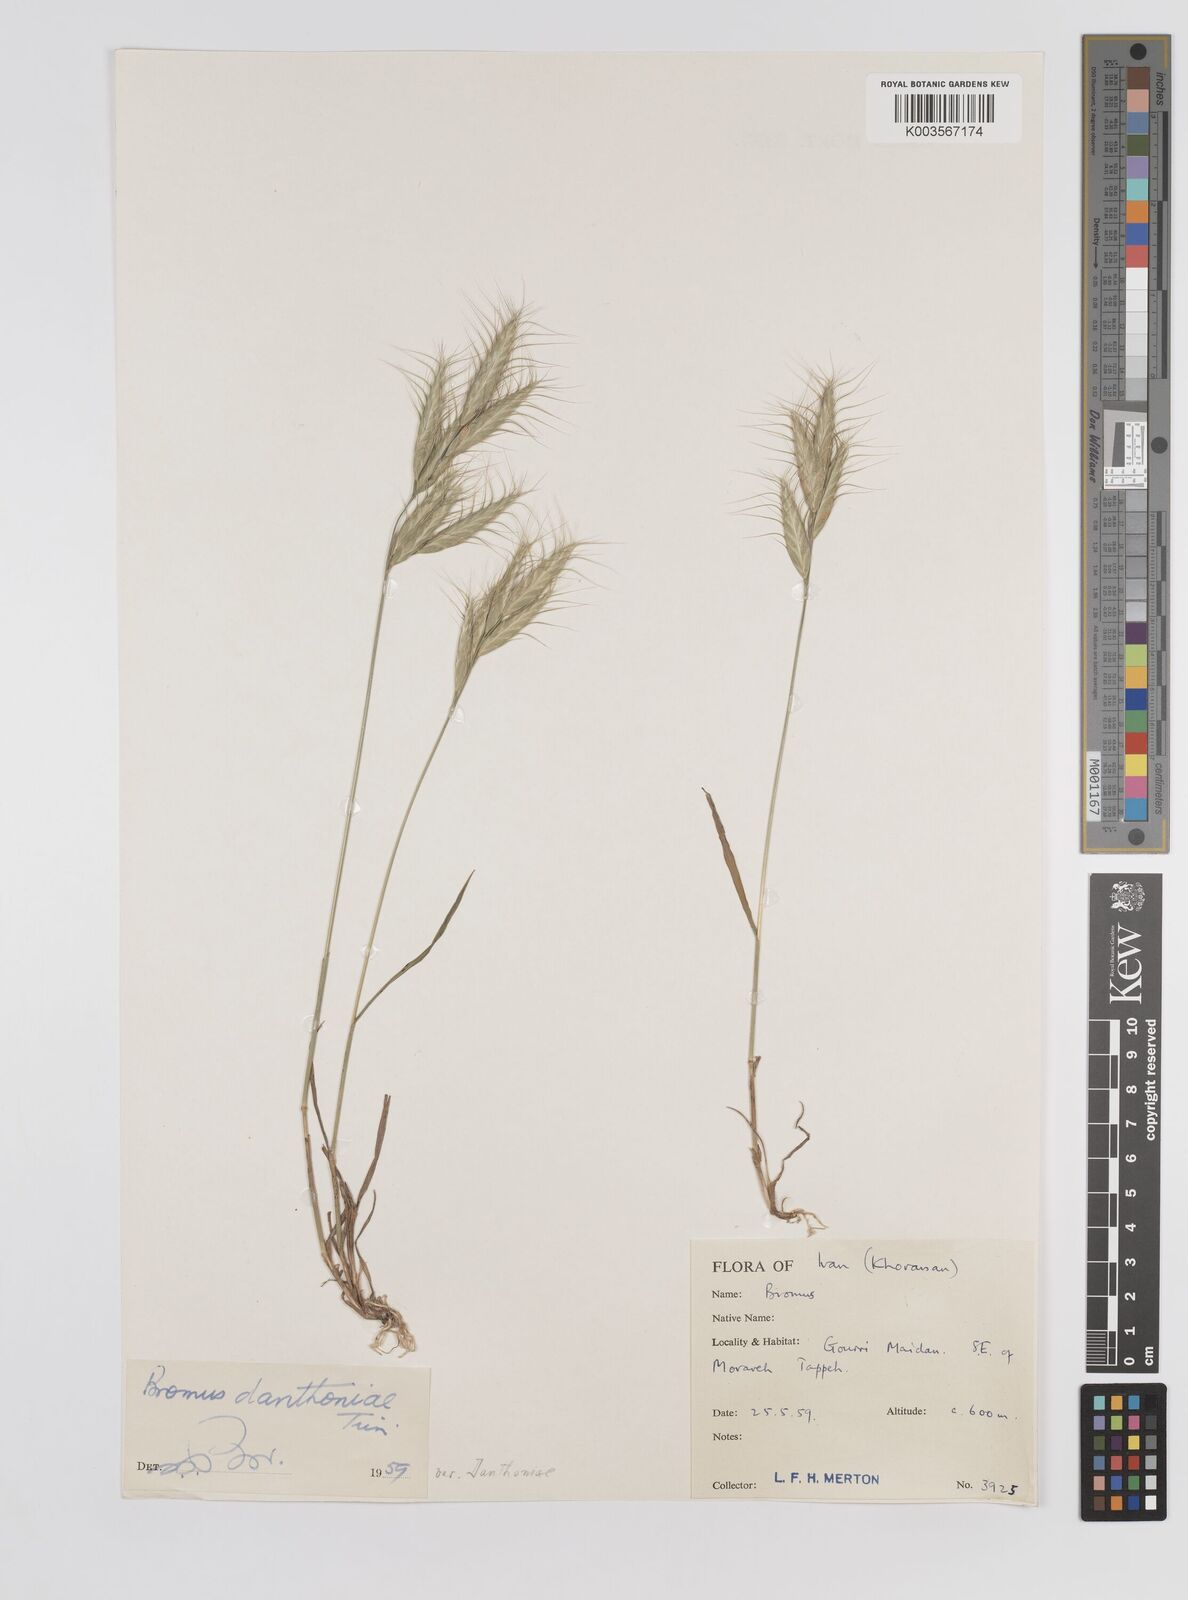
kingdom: Plantae
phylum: Tracheophyta
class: Liliopsida
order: Poales
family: Poaceae
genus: Bromus
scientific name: Bromus danthoniae
